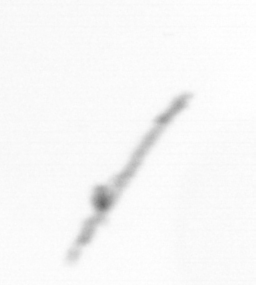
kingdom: Chromista
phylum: Ochrophyta
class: Bacillariophyceae
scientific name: Bacillariophyceae
